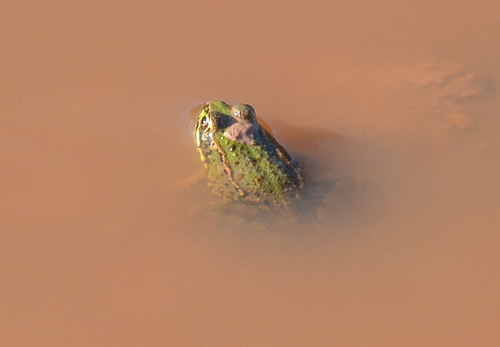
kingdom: Animalia
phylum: Chordata
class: Amphibia
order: Anura
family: Ranidae
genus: Pelophylax
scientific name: Pelophylax perezi
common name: Perez's frog
